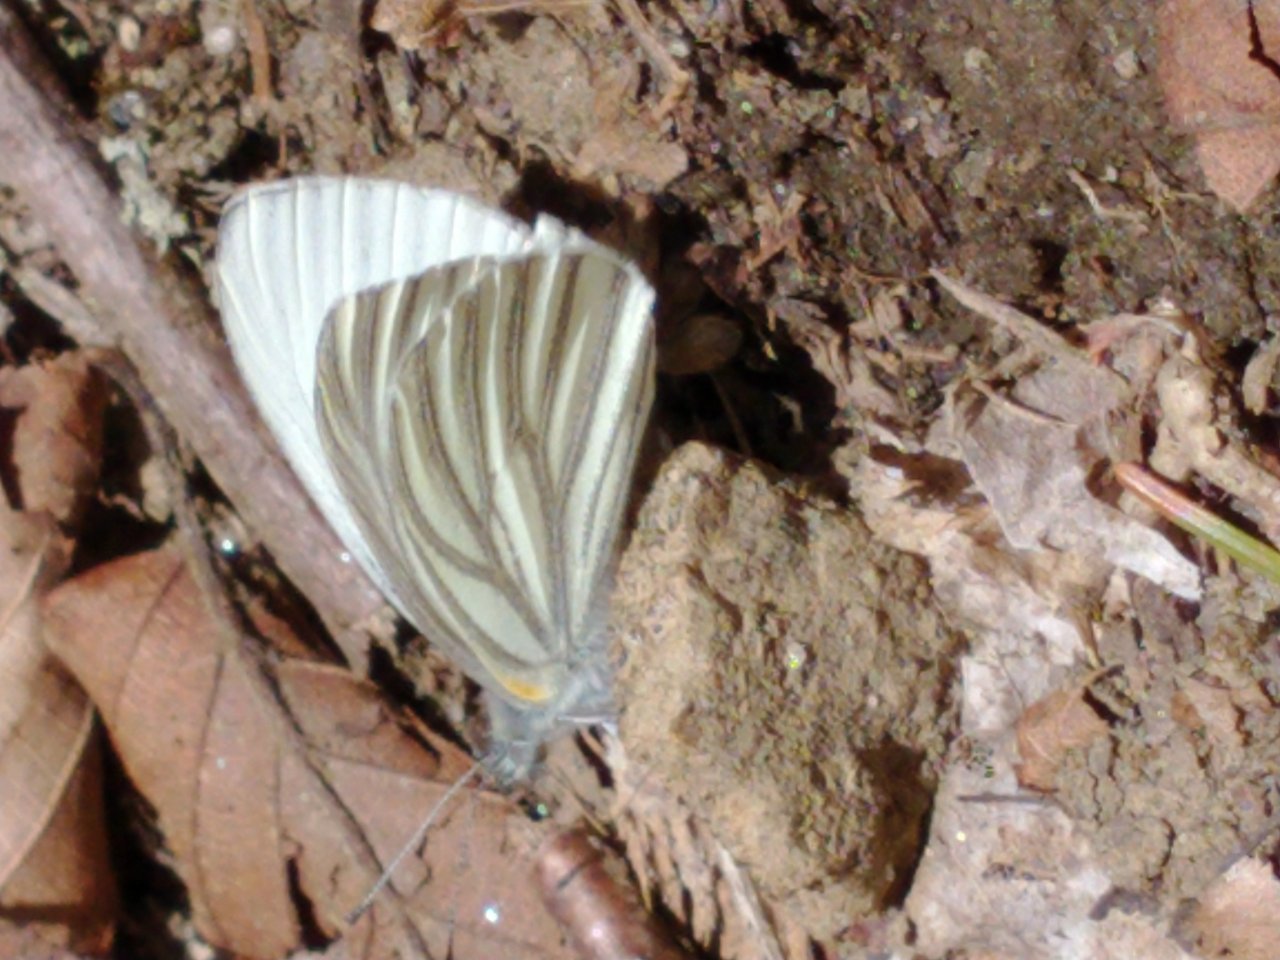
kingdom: Animalia
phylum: Arthropoda
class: Insecta
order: Lepidoptera
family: Pieridae
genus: Pieris
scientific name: Pieris oleracea
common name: Mustard White
